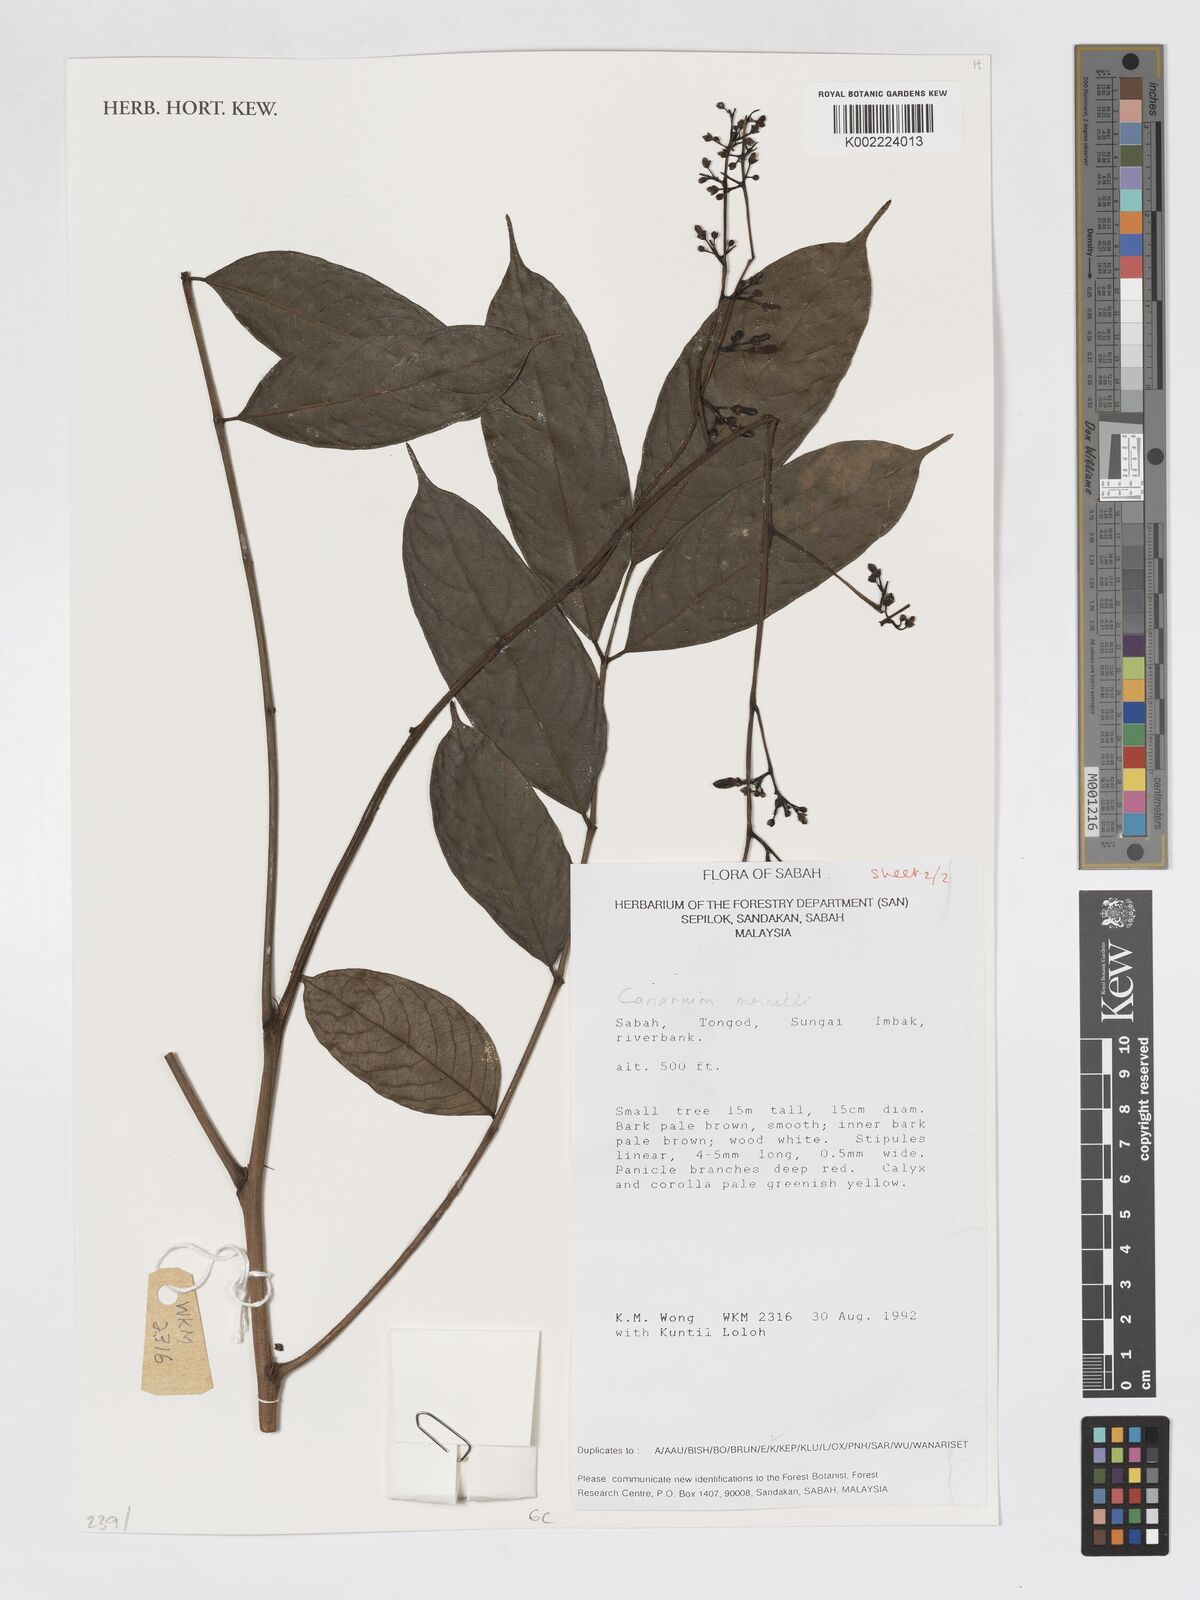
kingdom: Plantae
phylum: Tracheophyta
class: Magnoliopsida
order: Sapindales
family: Burseraceae
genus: Canarium
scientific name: Canarium merrillii
